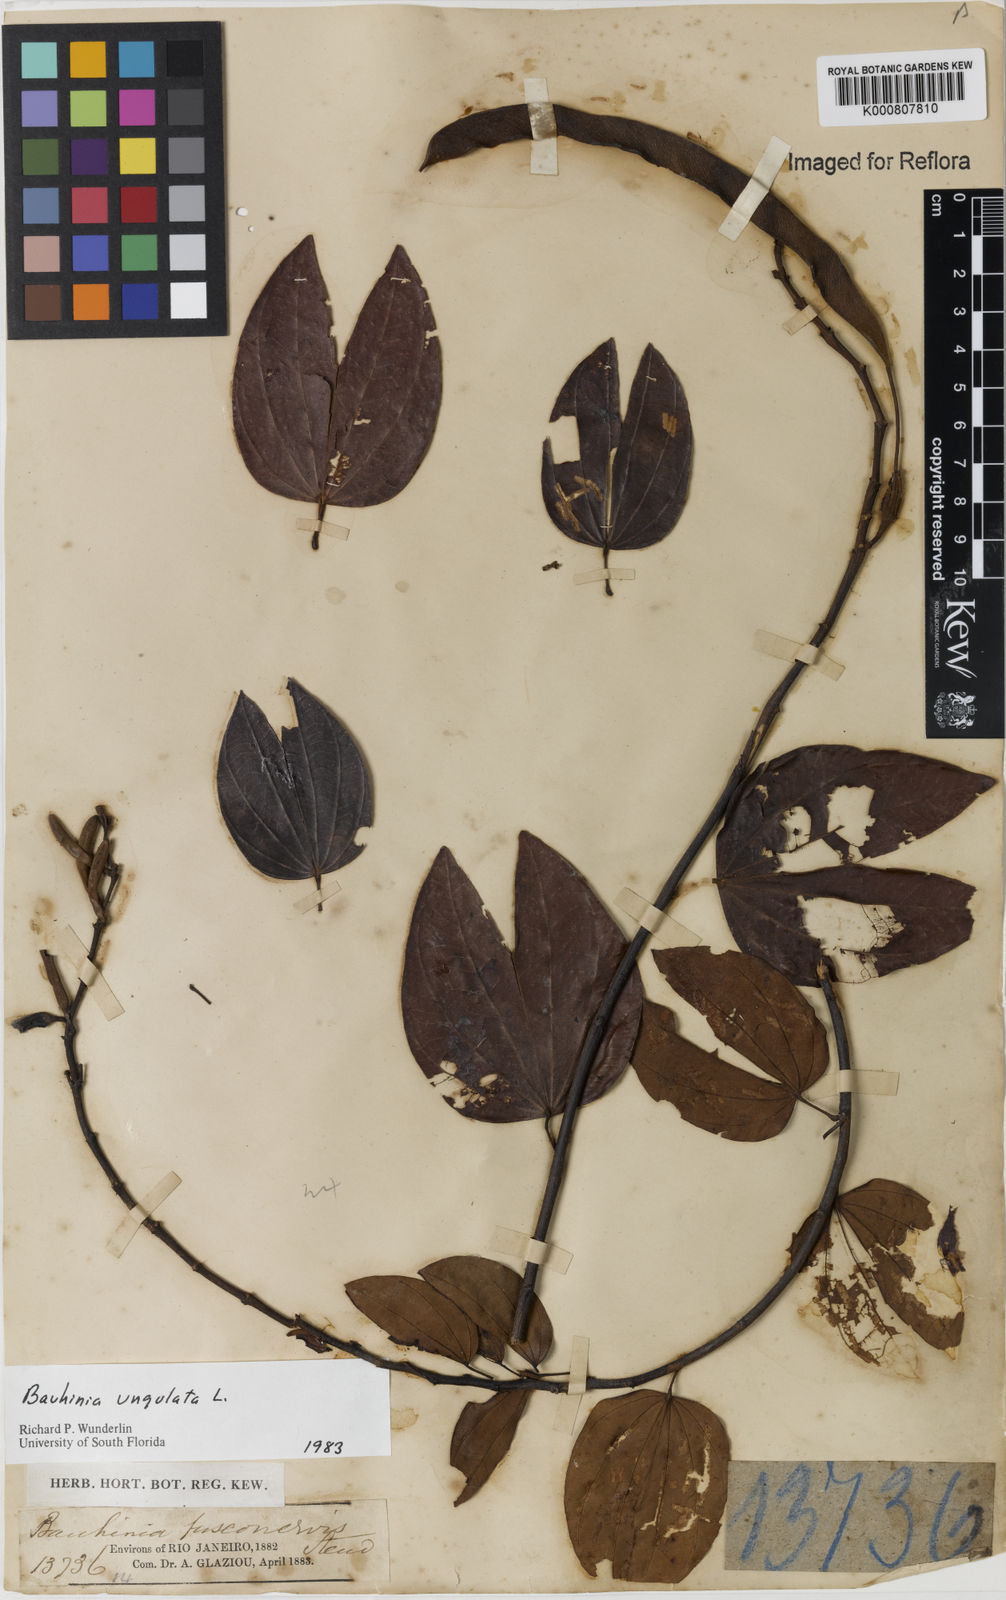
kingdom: Plantae
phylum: Tracheophyta
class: Magnoliopsida
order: Fabales
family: Fabaceae
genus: Bauhinia
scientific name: Bauhinia ungulata
